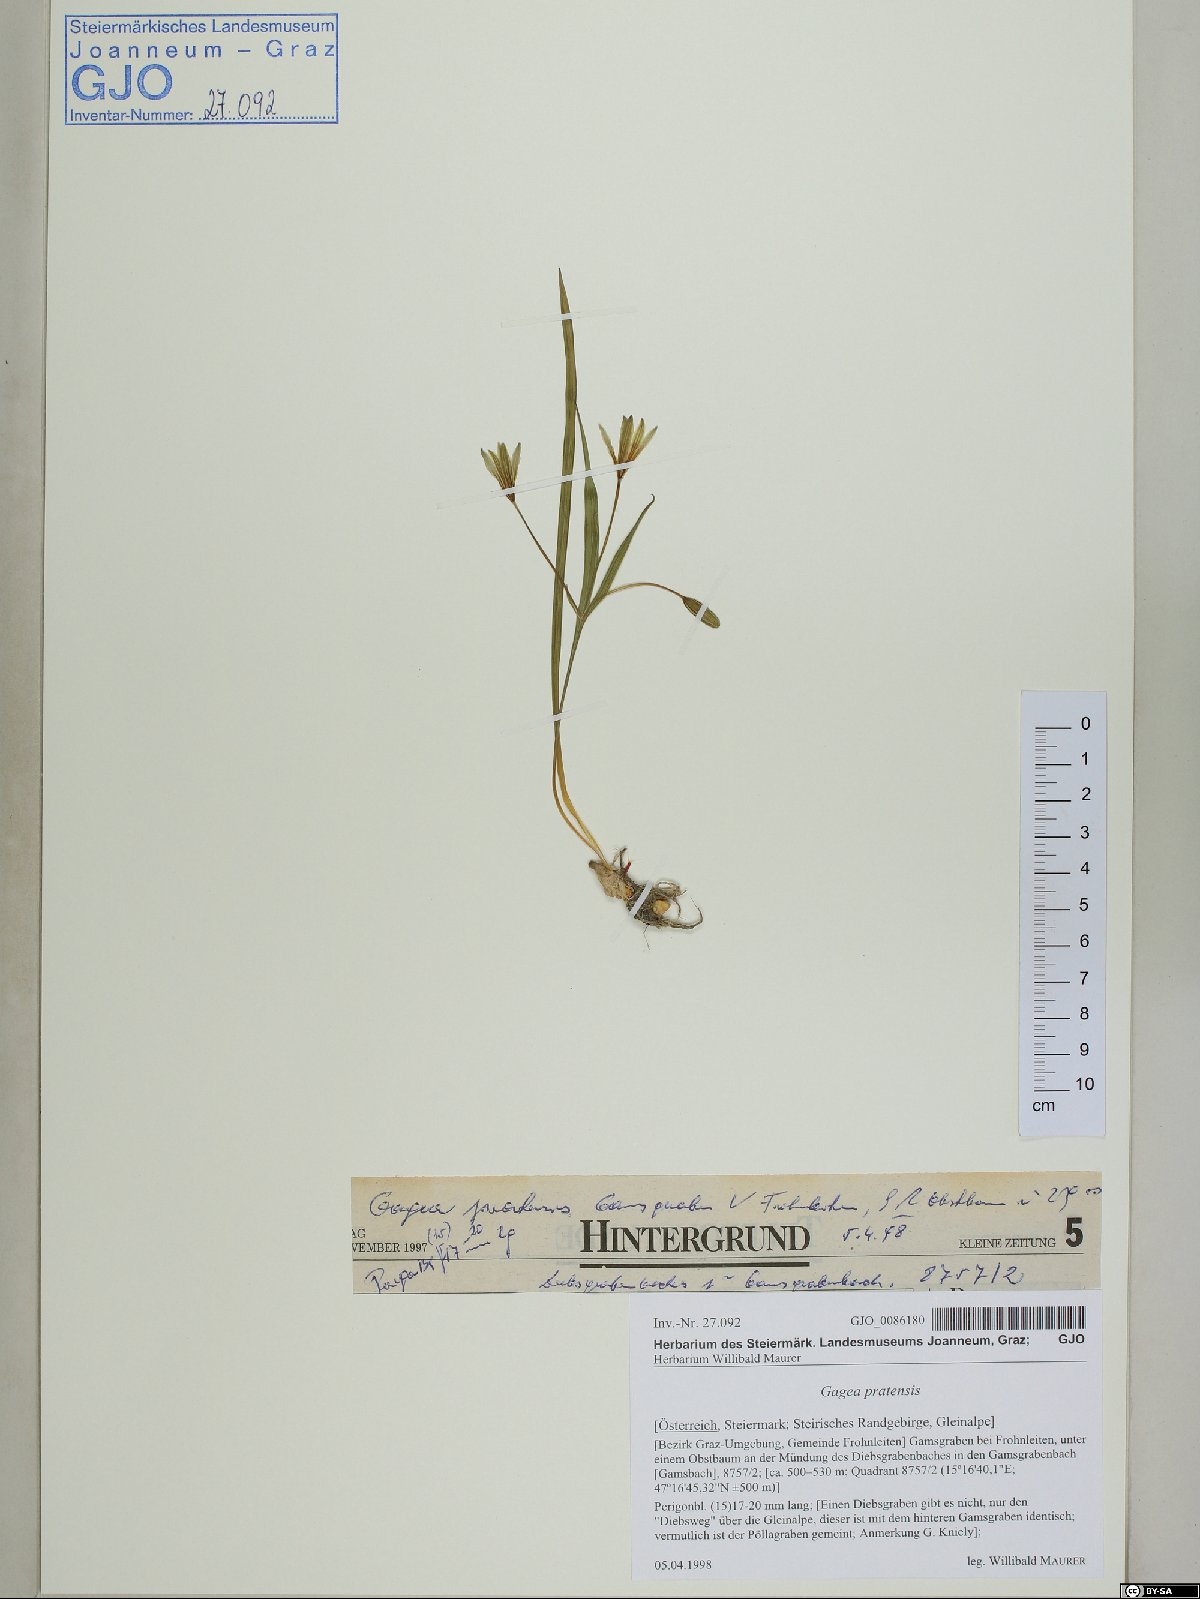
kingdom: Plantae
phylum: Tracheophyta
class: Liliopsida
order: Liliales
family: Liliaceae
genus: Gagea
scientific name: Gagea pratensis
